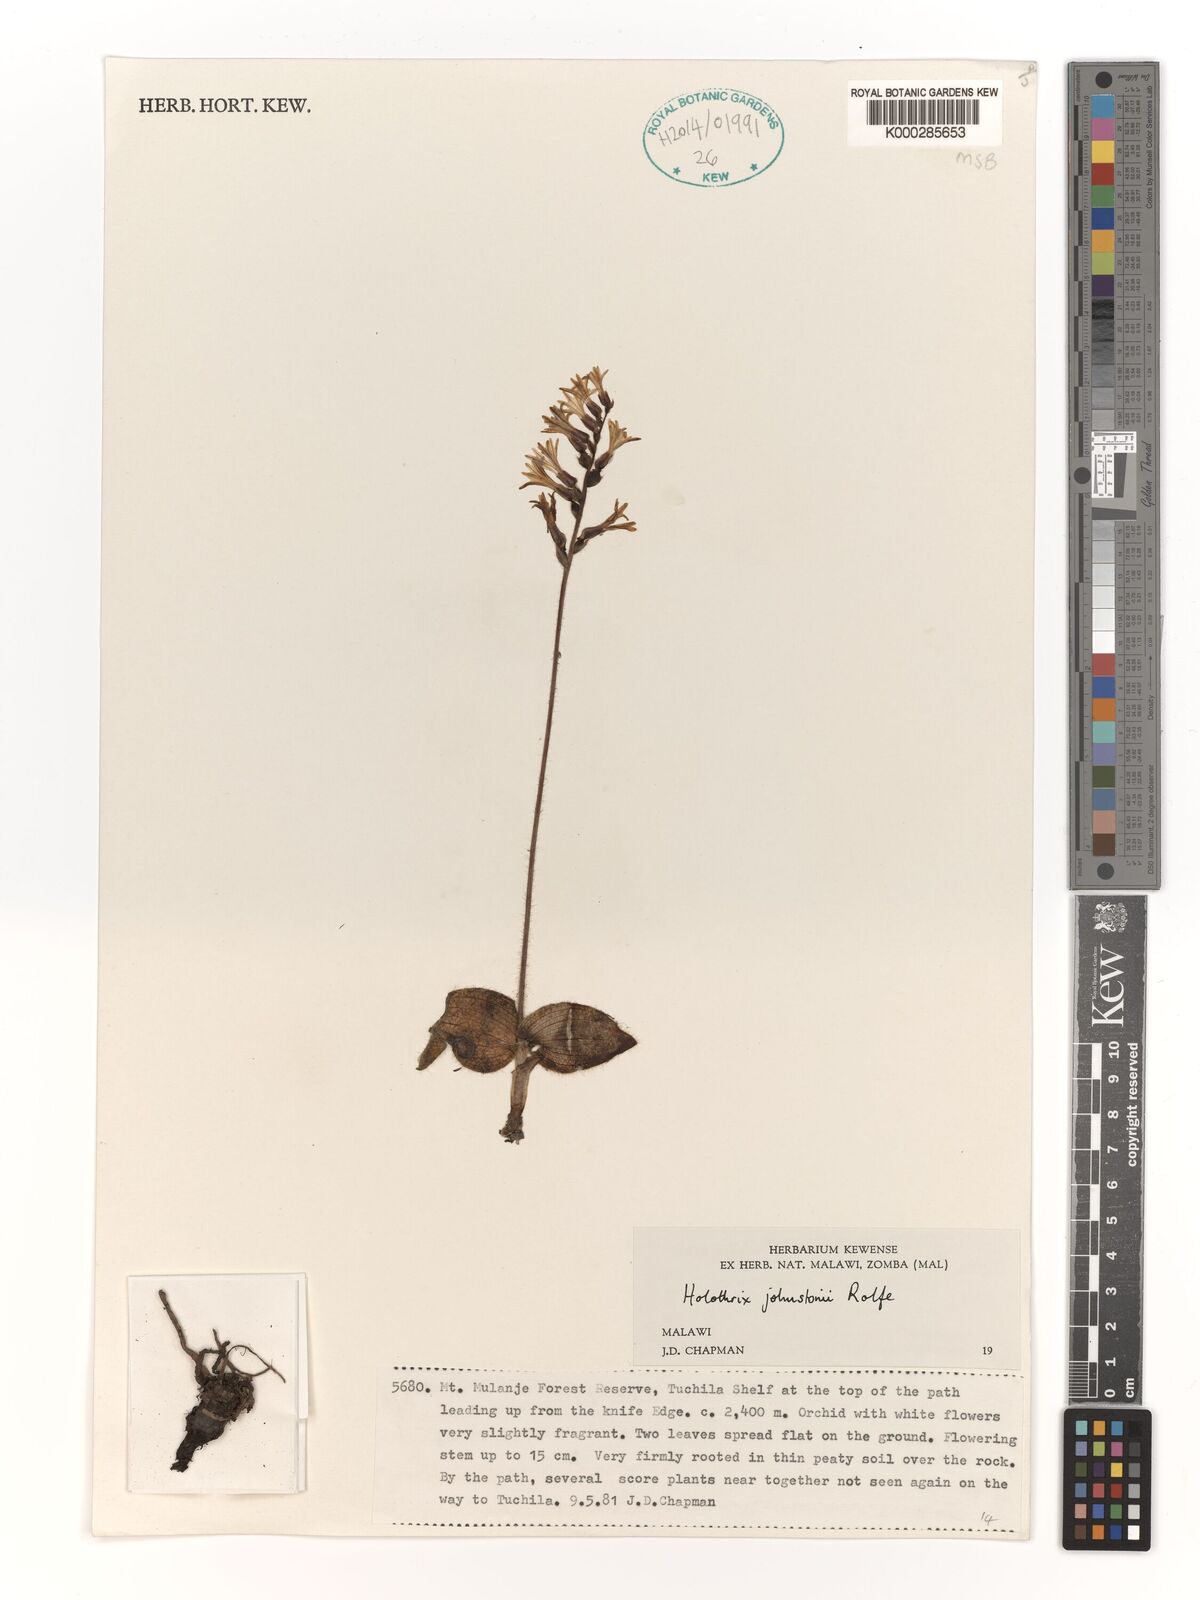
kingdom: Plantae
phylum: Tracheophyta
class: Liliopsida
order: Asparagales
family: Orchidaceae
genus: Holothrix
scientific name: Holothrix johnstonii
